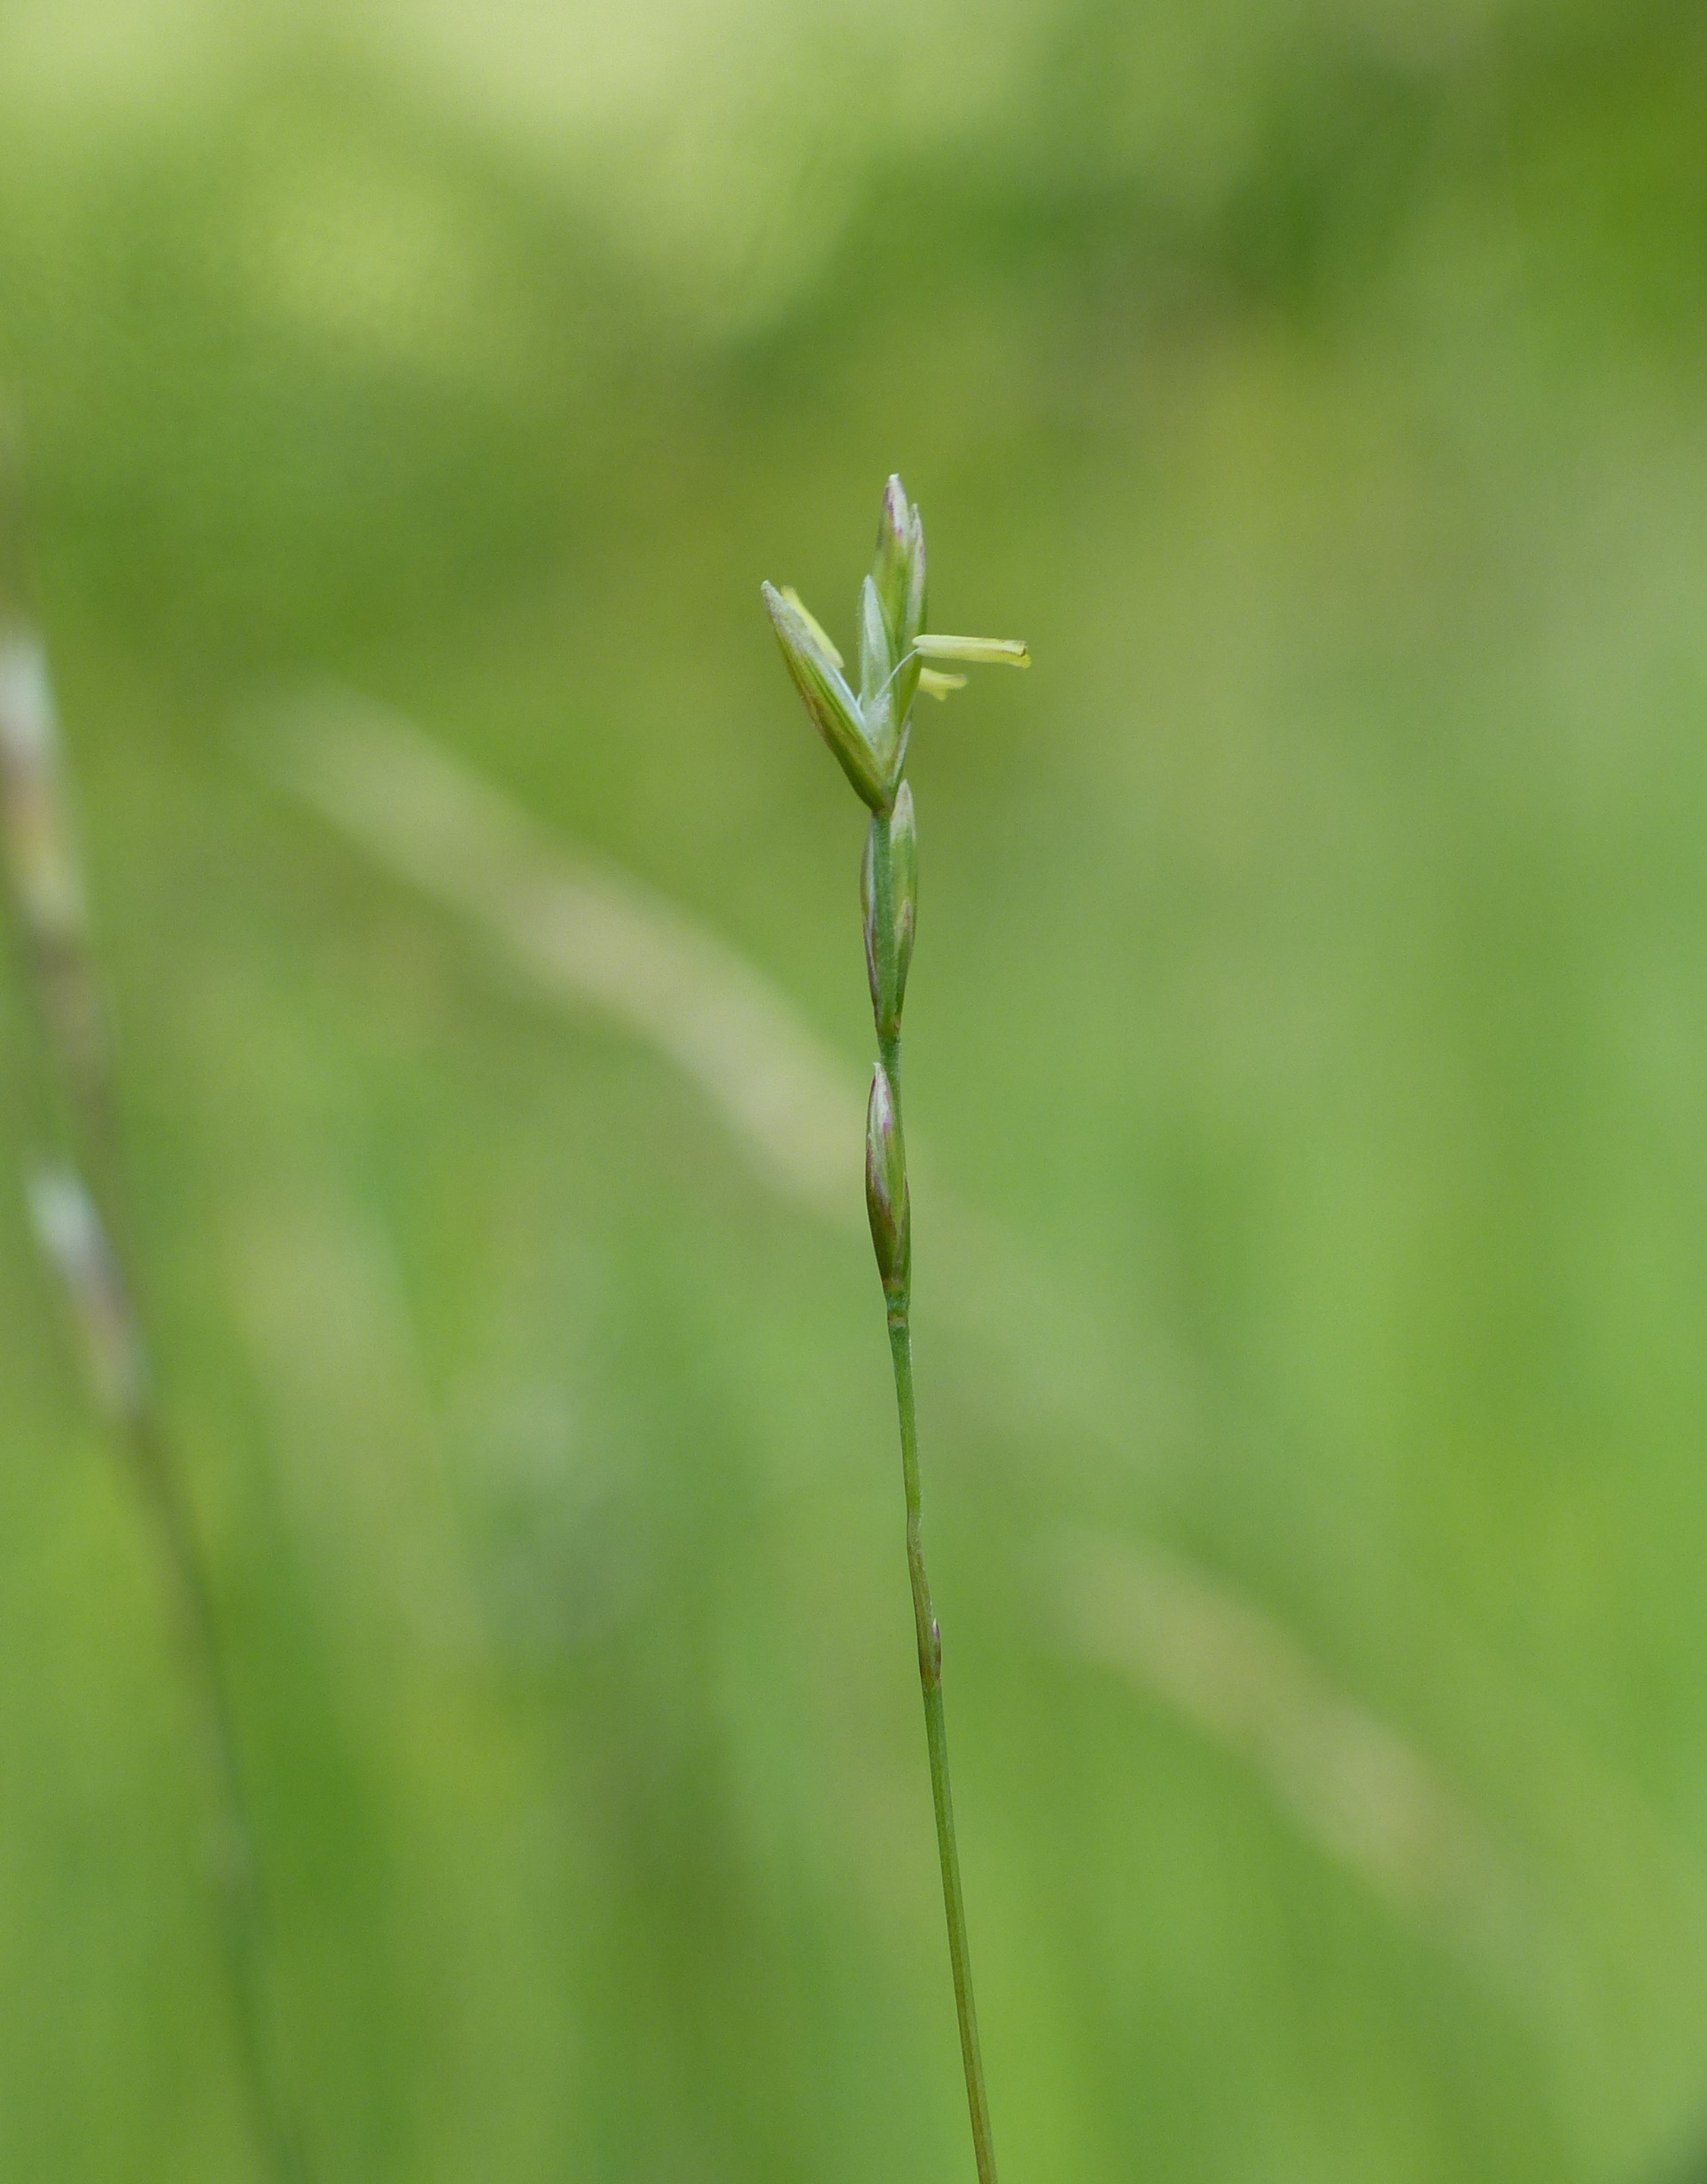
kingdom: Plantae
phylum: Tracheophyta
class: Liliopsida
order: Poales
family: Poaceae
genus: Danthonia
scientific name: Danthonia decumbens
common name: Tandbælg
